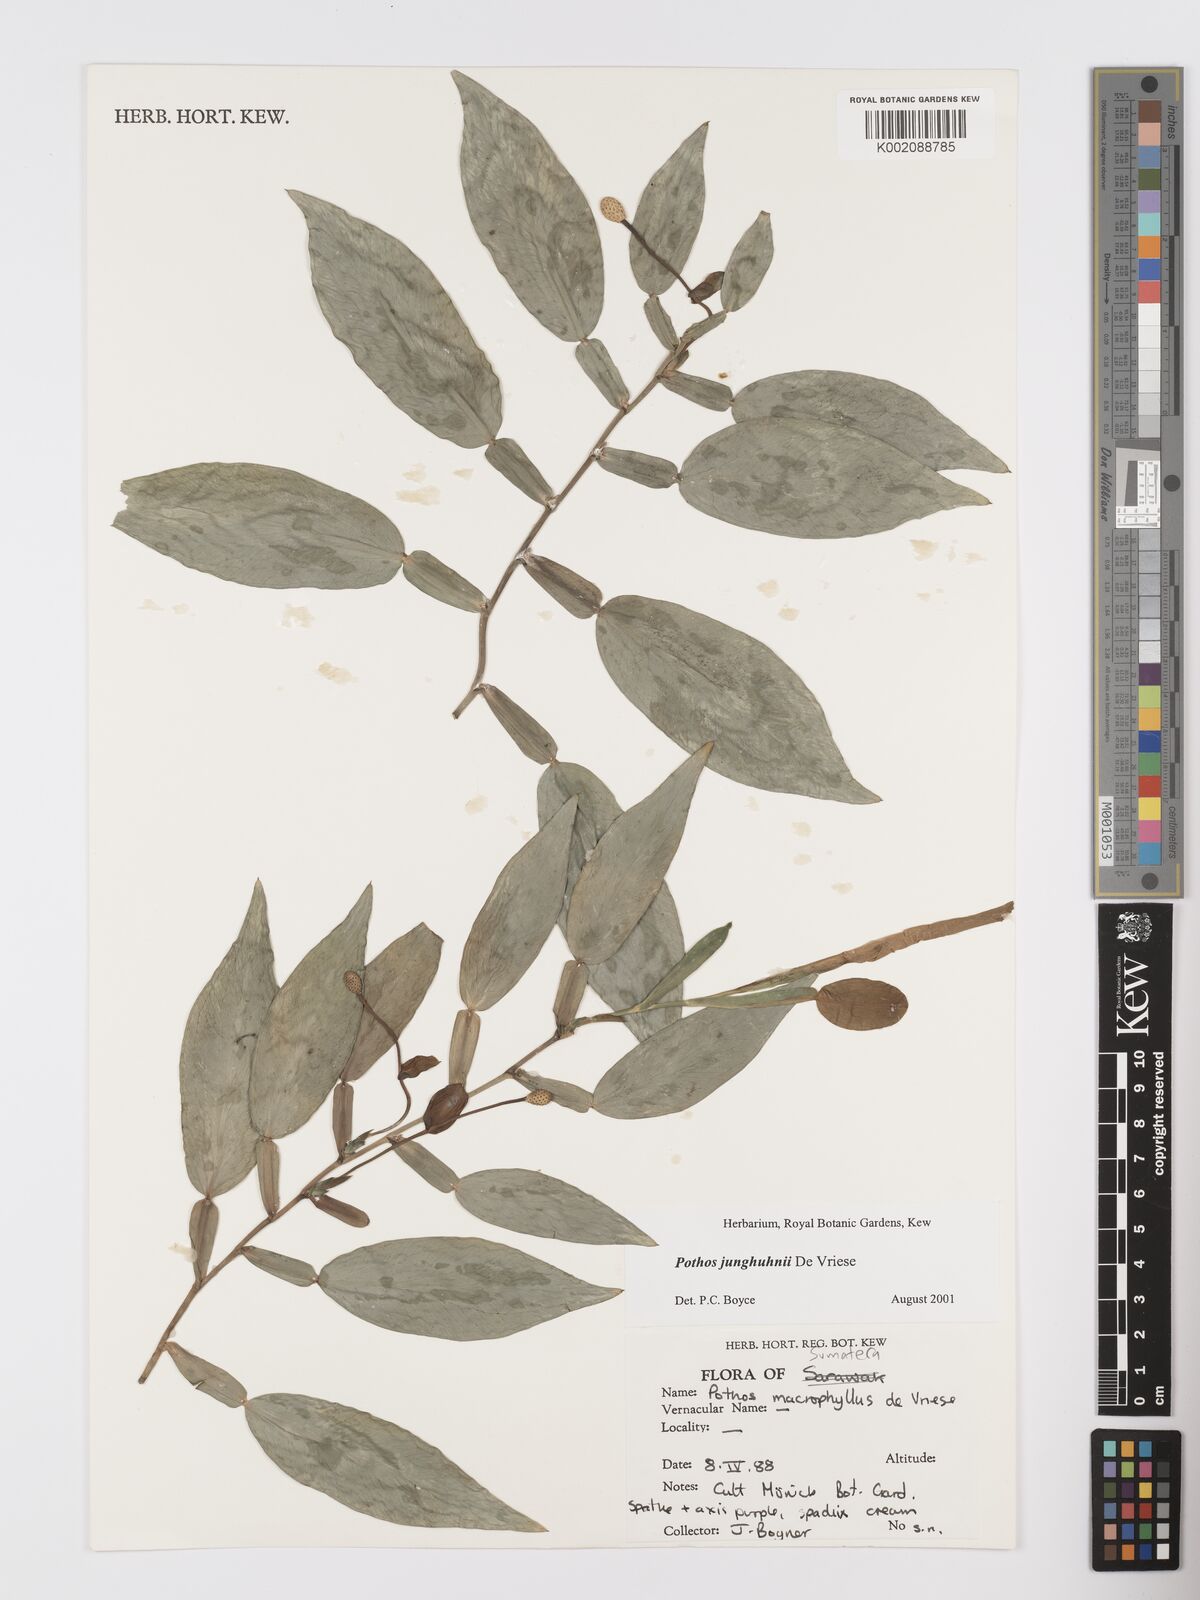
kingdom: Plantae
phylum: Tracheophyta
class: Liliopsida
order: Alismatales
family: Araceae
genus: Pothos
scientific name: Pothos junghuhnii
